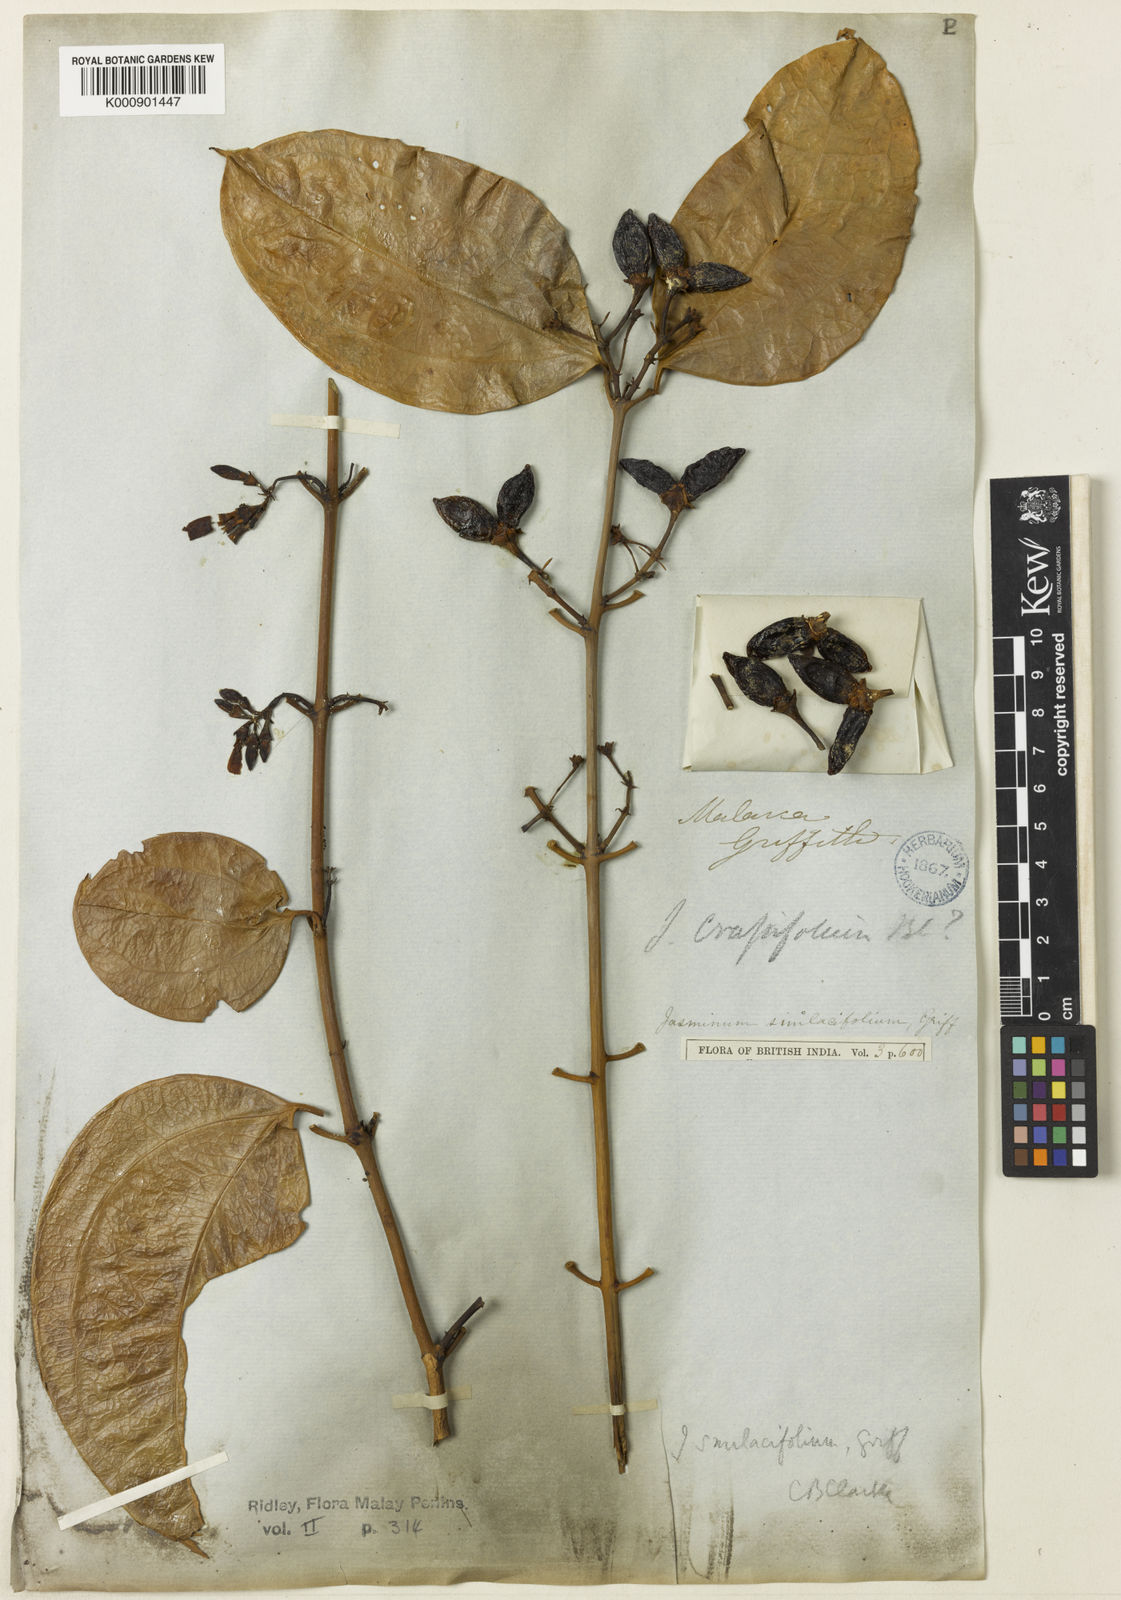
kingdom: Plantae
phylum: Tracheophyta
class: Magnoliopsida
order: Lamiales
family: Oleaceae
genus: Jasminum
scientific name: Jasminum smilacifolium
